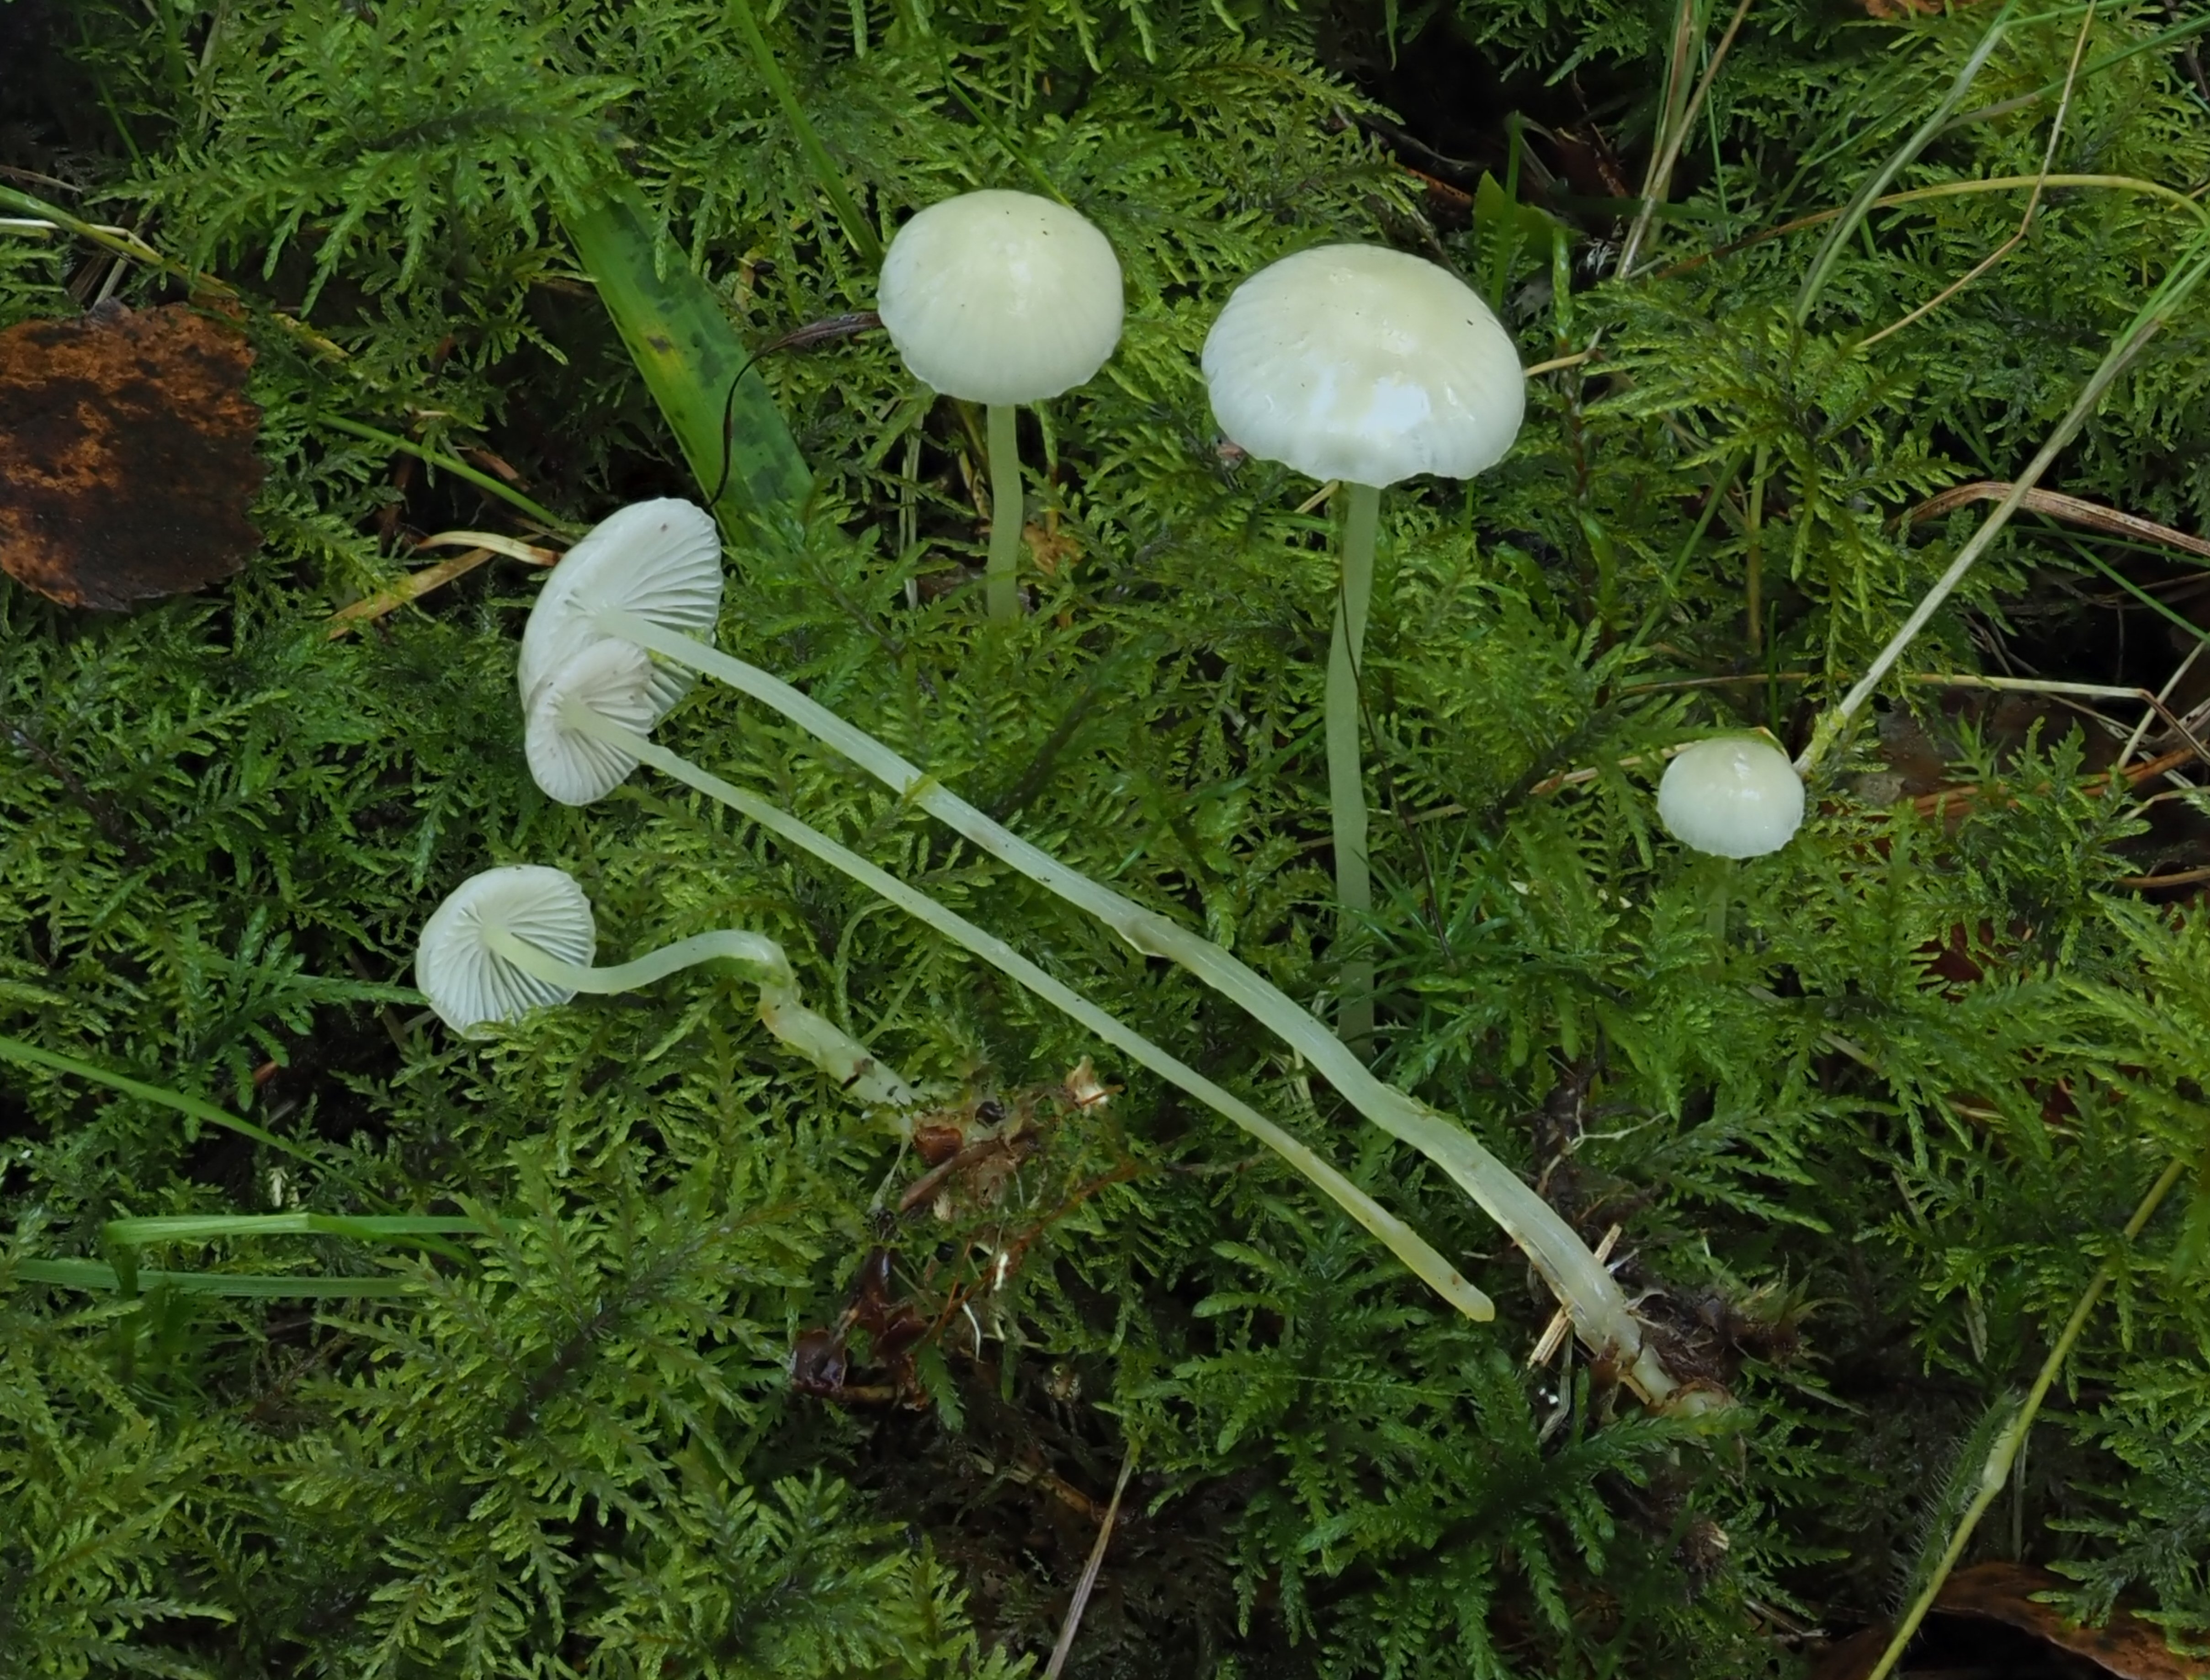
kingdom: Fungi
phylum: Basidiomycota
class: Agaricomycetes
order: Agaricales
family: Mycenaceae
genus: Mycena
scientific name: Mycena epipterygia
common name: Yellowleg bonnet
